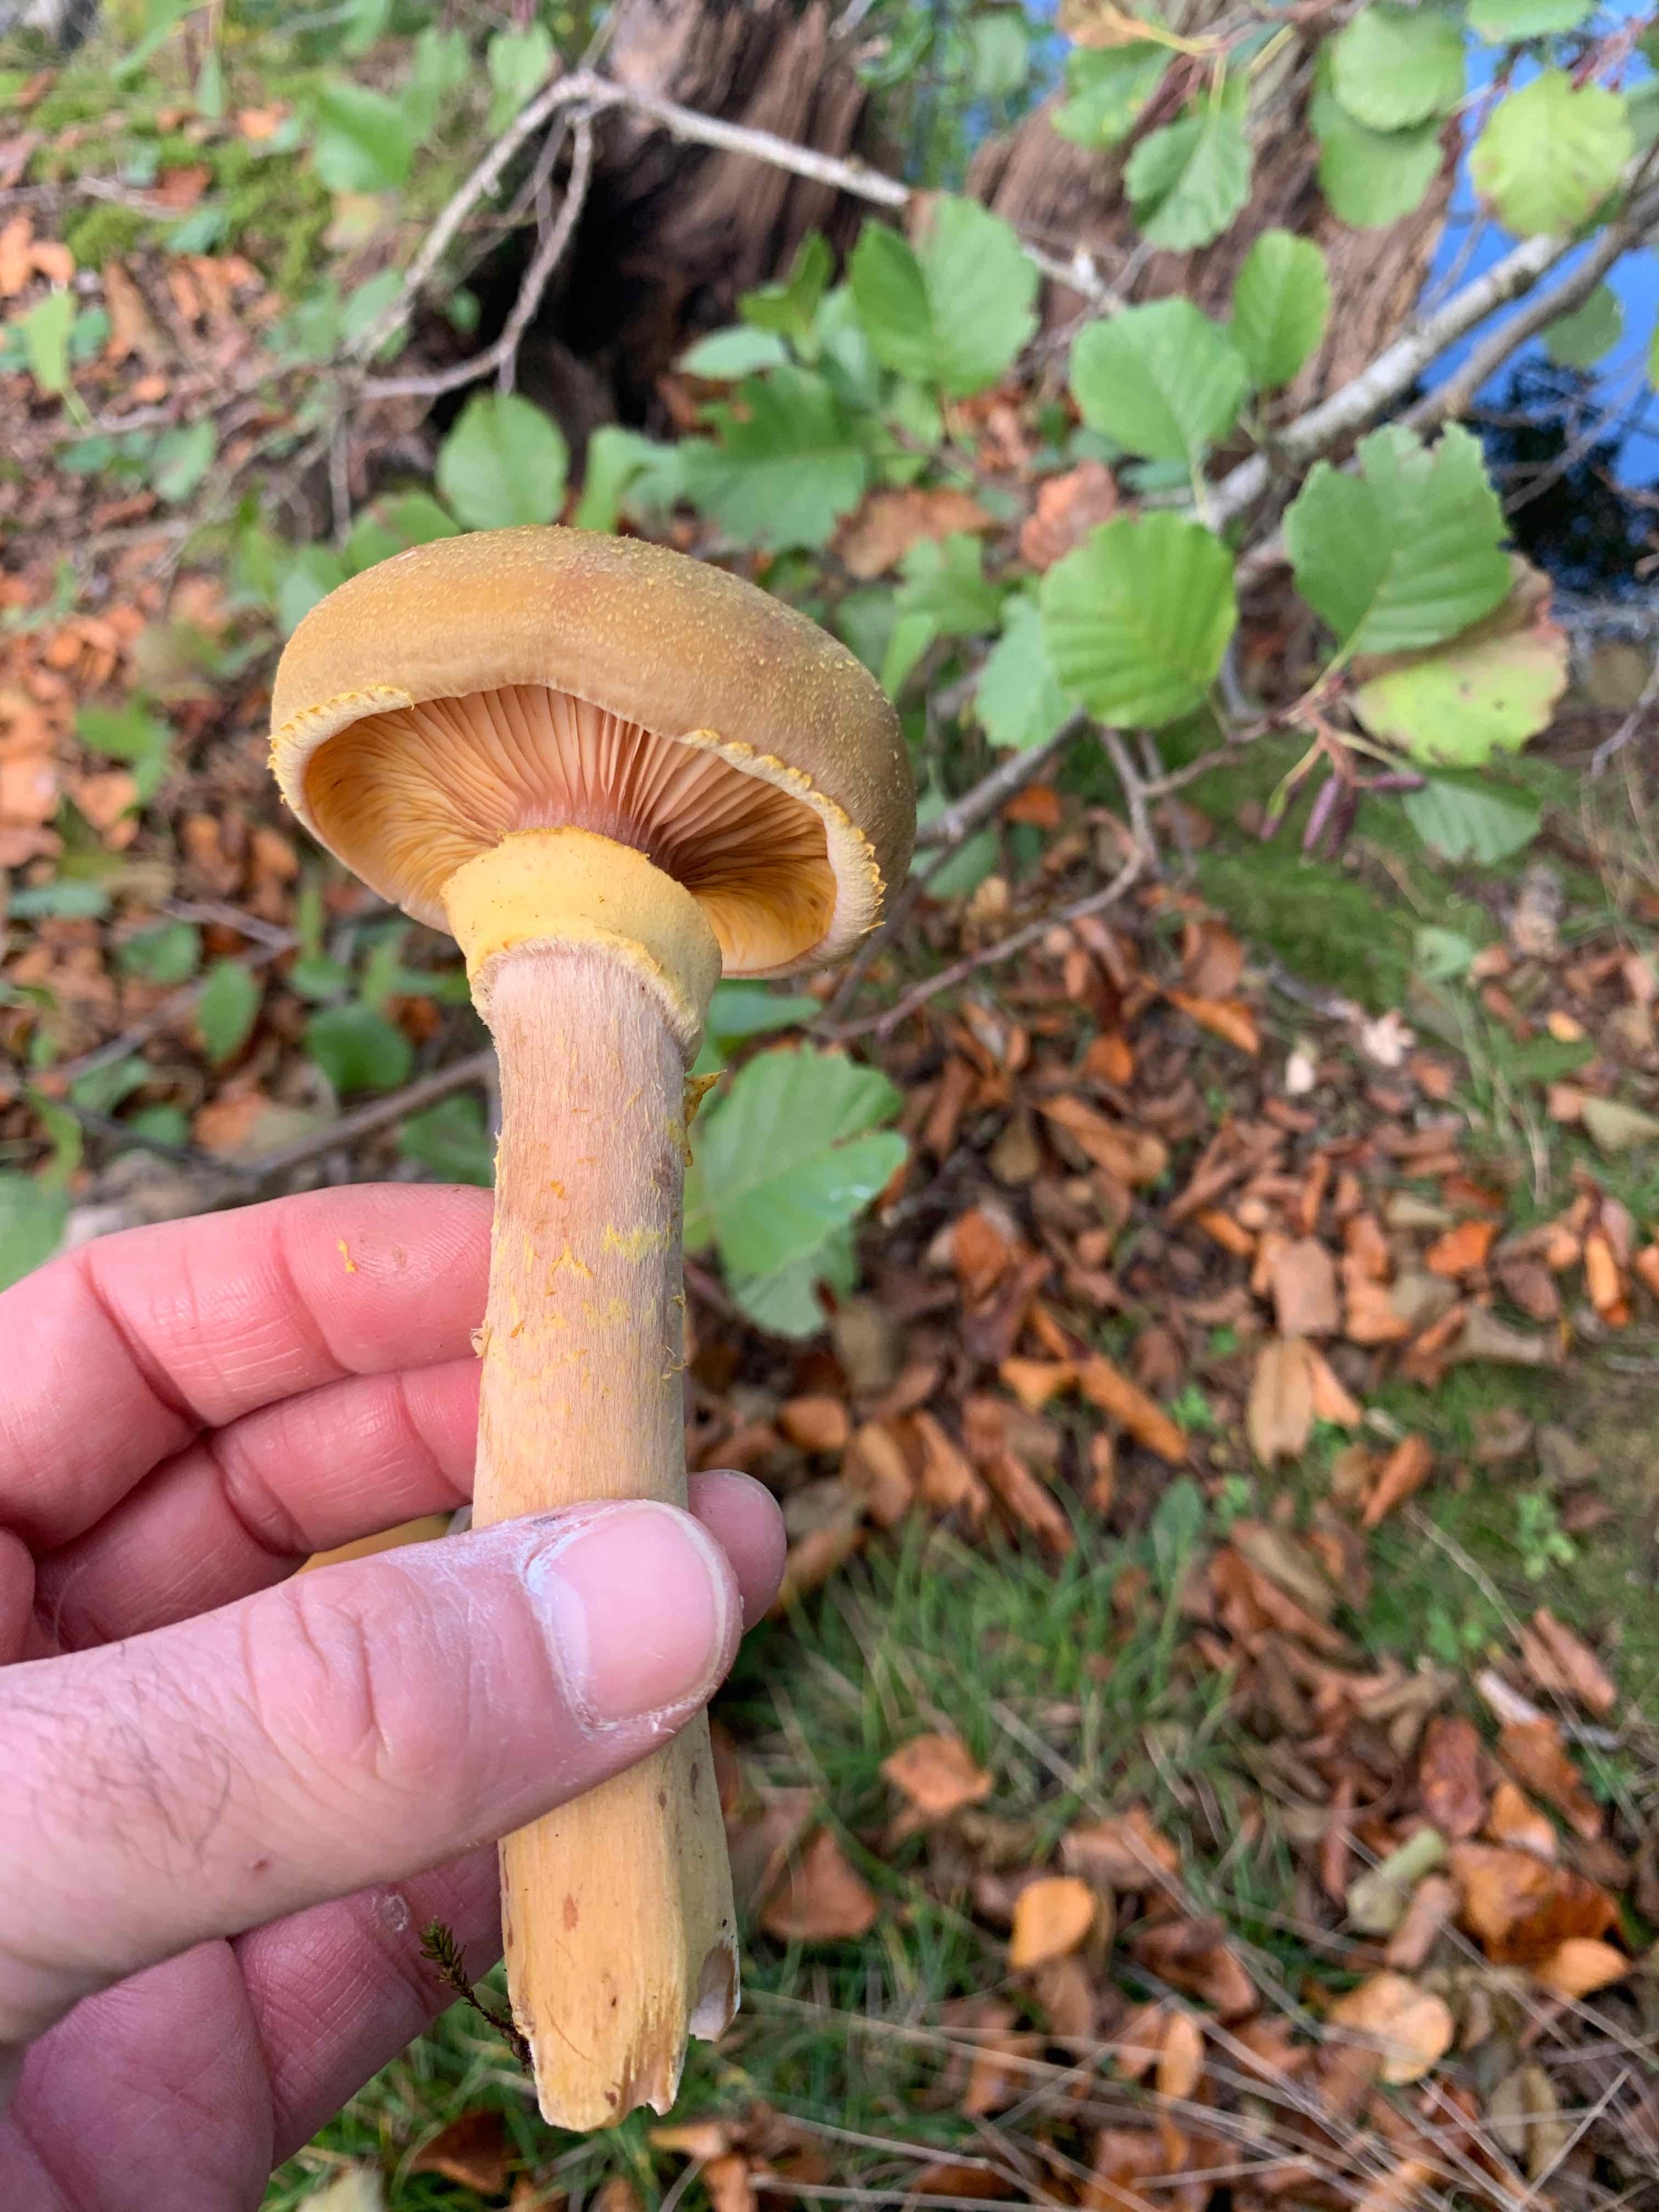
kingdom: Fungi
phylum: Basidiomycota
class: Agaricomycetes
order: Agaricales
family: Physalacriaceae
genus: Armillaria
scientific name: Armillaria mellea
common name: ægte honningsvamp
